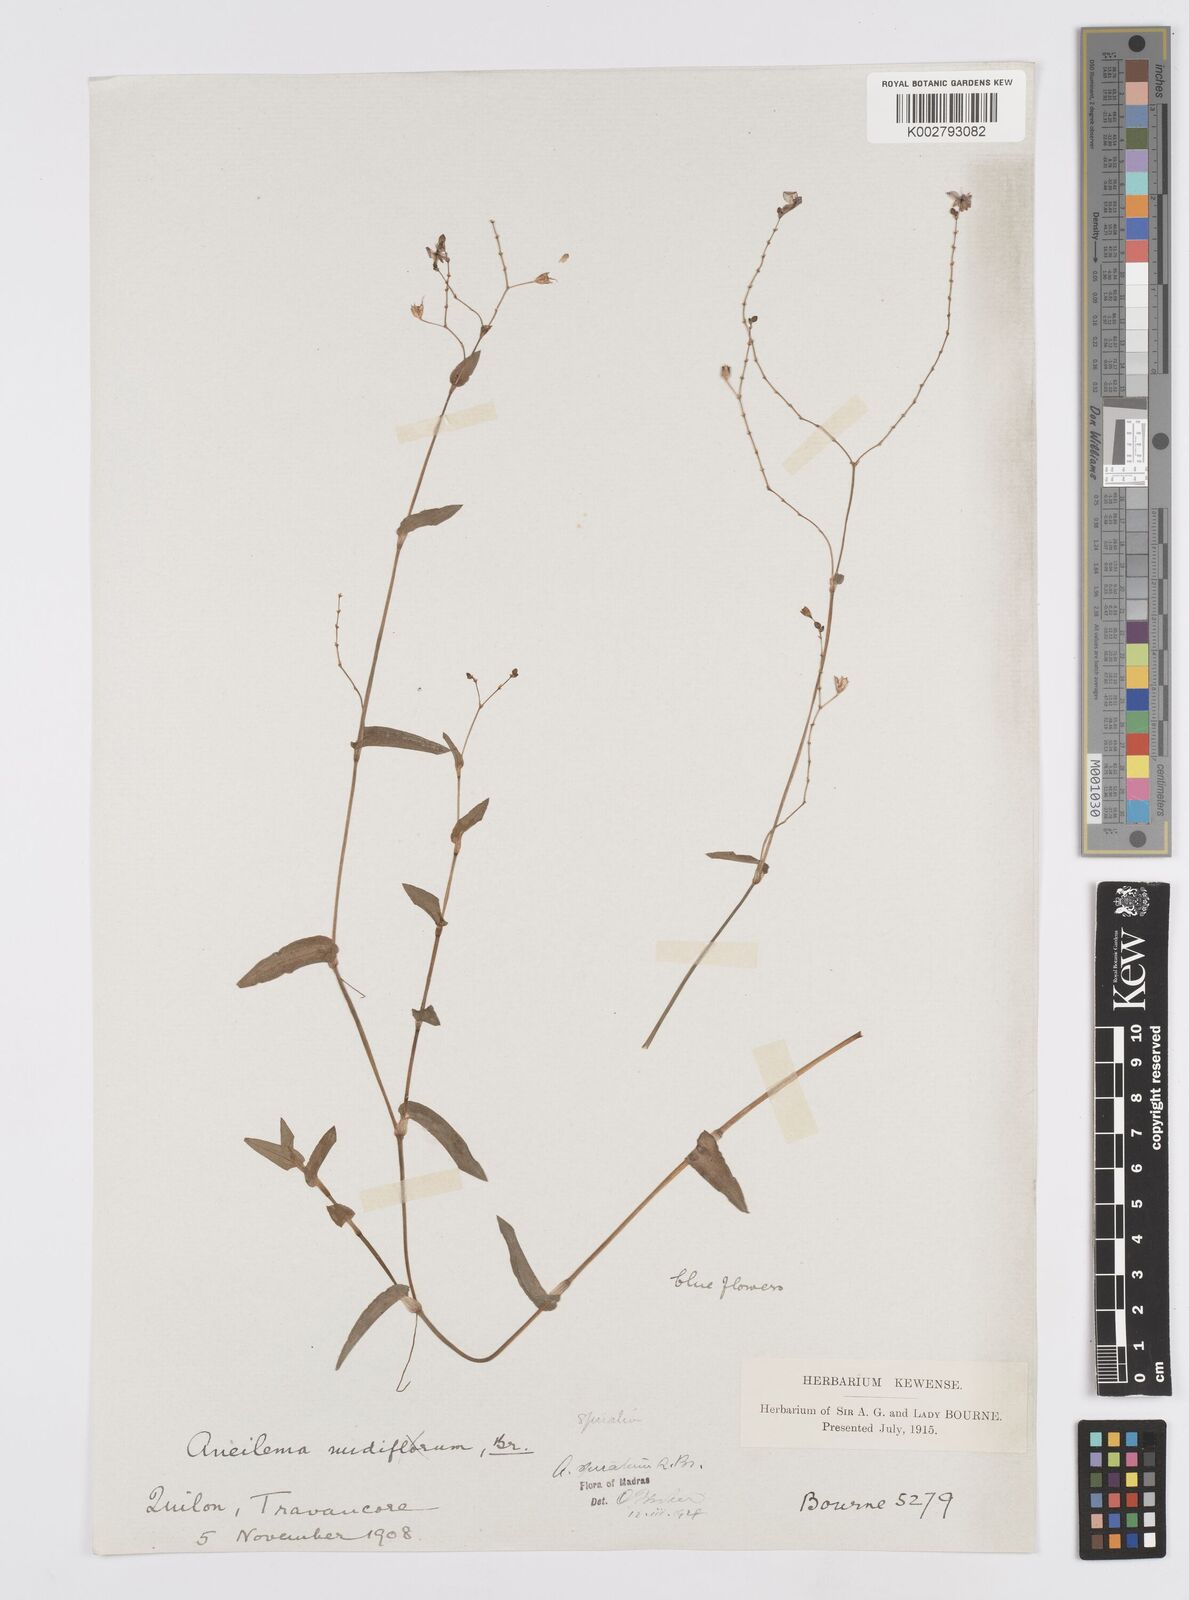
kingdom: Plantae
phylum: Tracheophyta
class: Liliopsida
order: Commelinales
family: Commelinaceae
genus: Murdannia
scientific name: Murdannia spirata
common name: Asiatic dewflower
